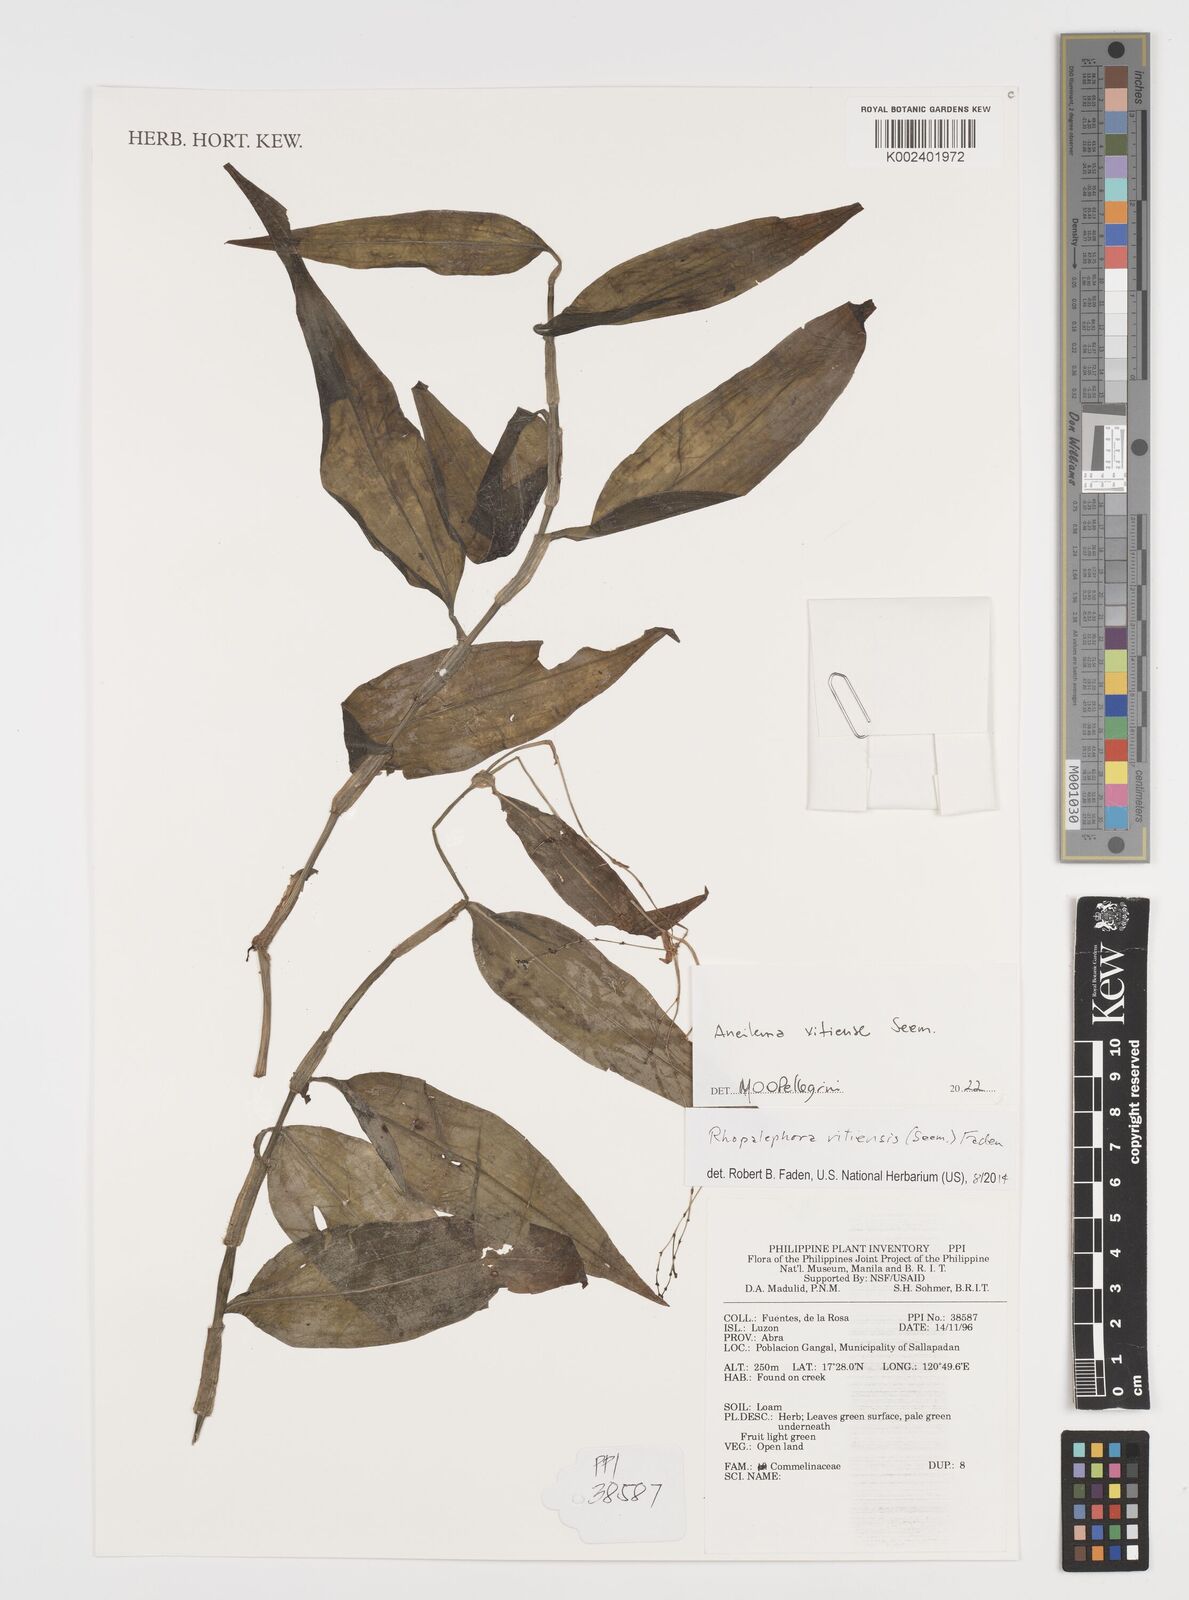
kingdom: Plantae
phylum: Tracheophyta
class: Liliopsida
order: Commelinales
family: Commelinaceae
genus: Rhopalephora
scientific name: Rhopalephora vitiensis
